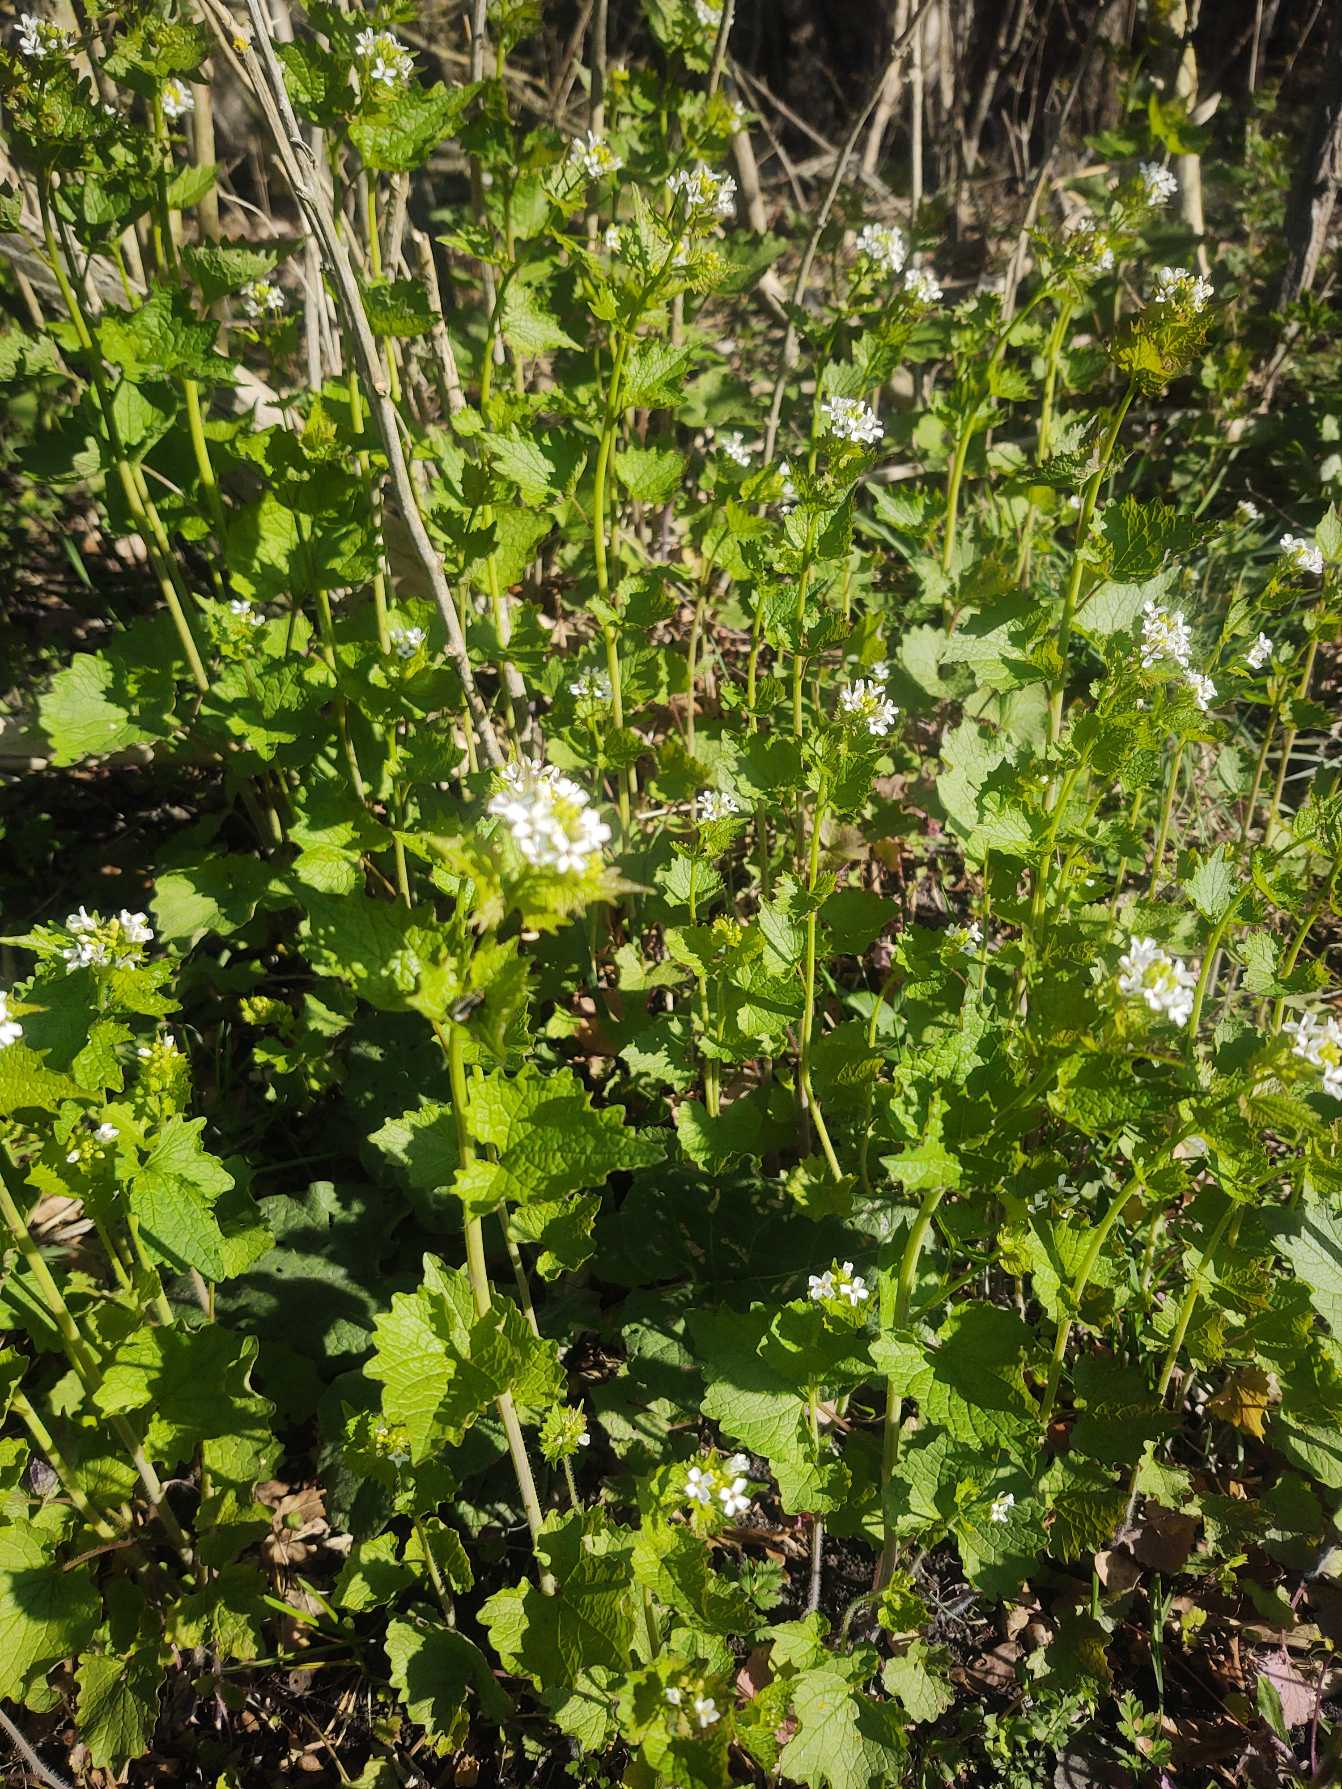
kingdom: Plantae
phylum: Tracheophyta
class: Magnoliopsida
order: Brassicales
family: Brassicaceae
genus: Alliaria
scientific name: Alliaria petiolata
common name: Løgkarse
